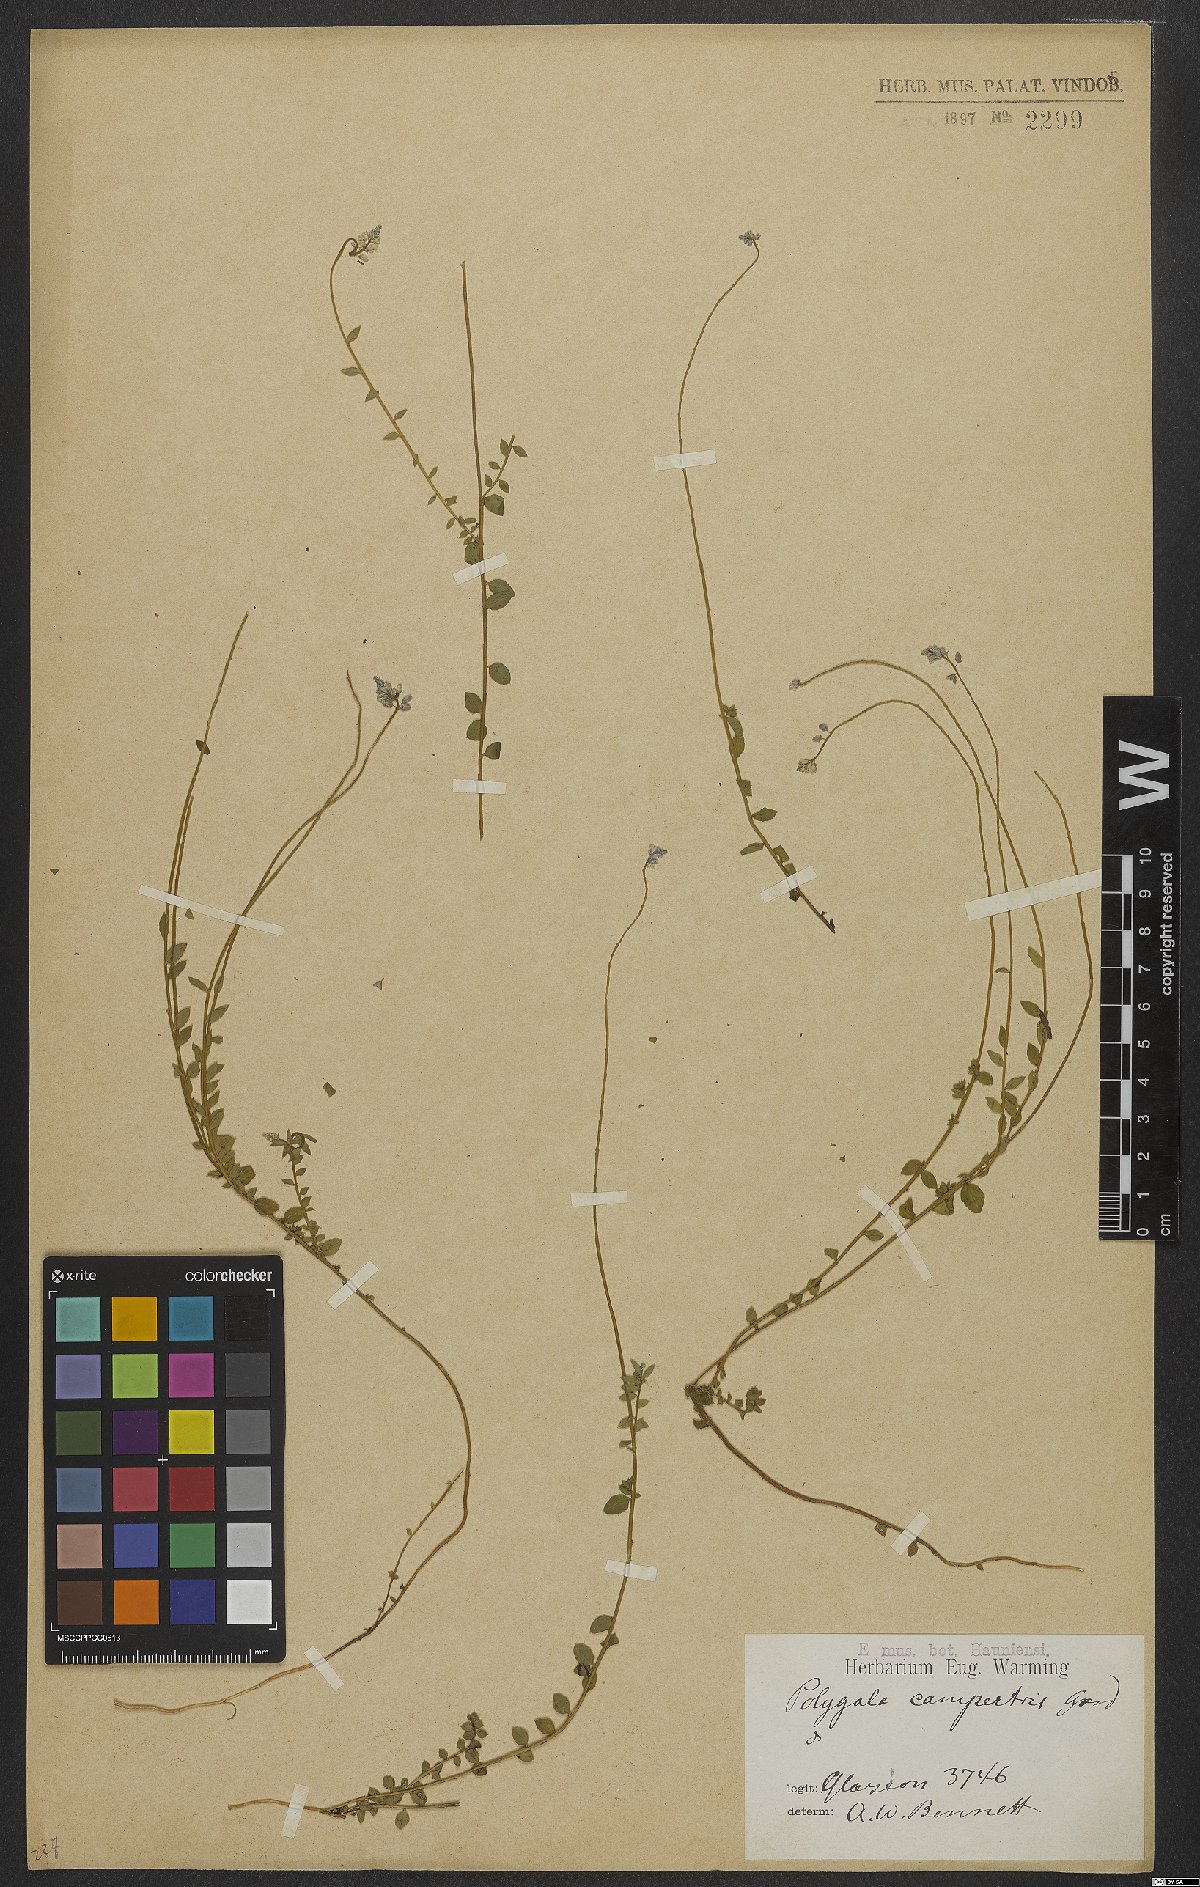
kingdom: Plantae
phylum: Tracheophyta
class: Magnoliopsida
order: Fabales
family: Polygalaceae
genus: Polygala
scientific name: Polygala campestris
